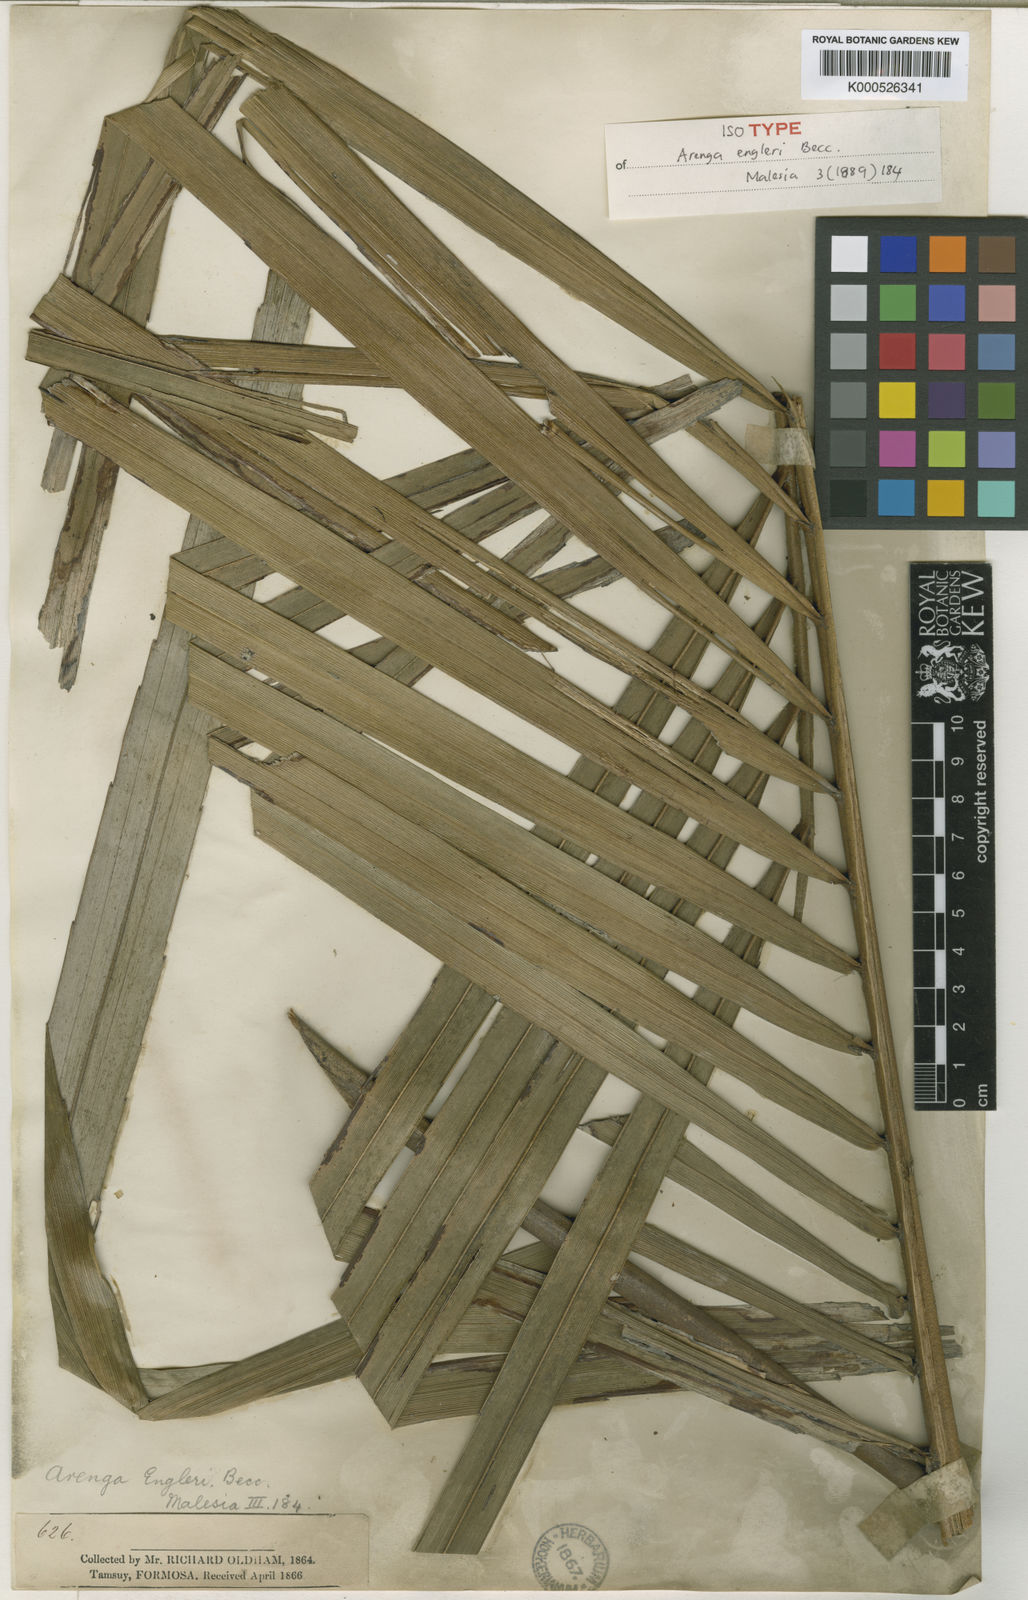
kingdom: Plantae
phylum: Tracheophyta
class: Liliopsida
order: Arecales
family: Arecaceae
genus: Arenga
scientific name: Arenga engleri
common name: Formosan sugar palm
